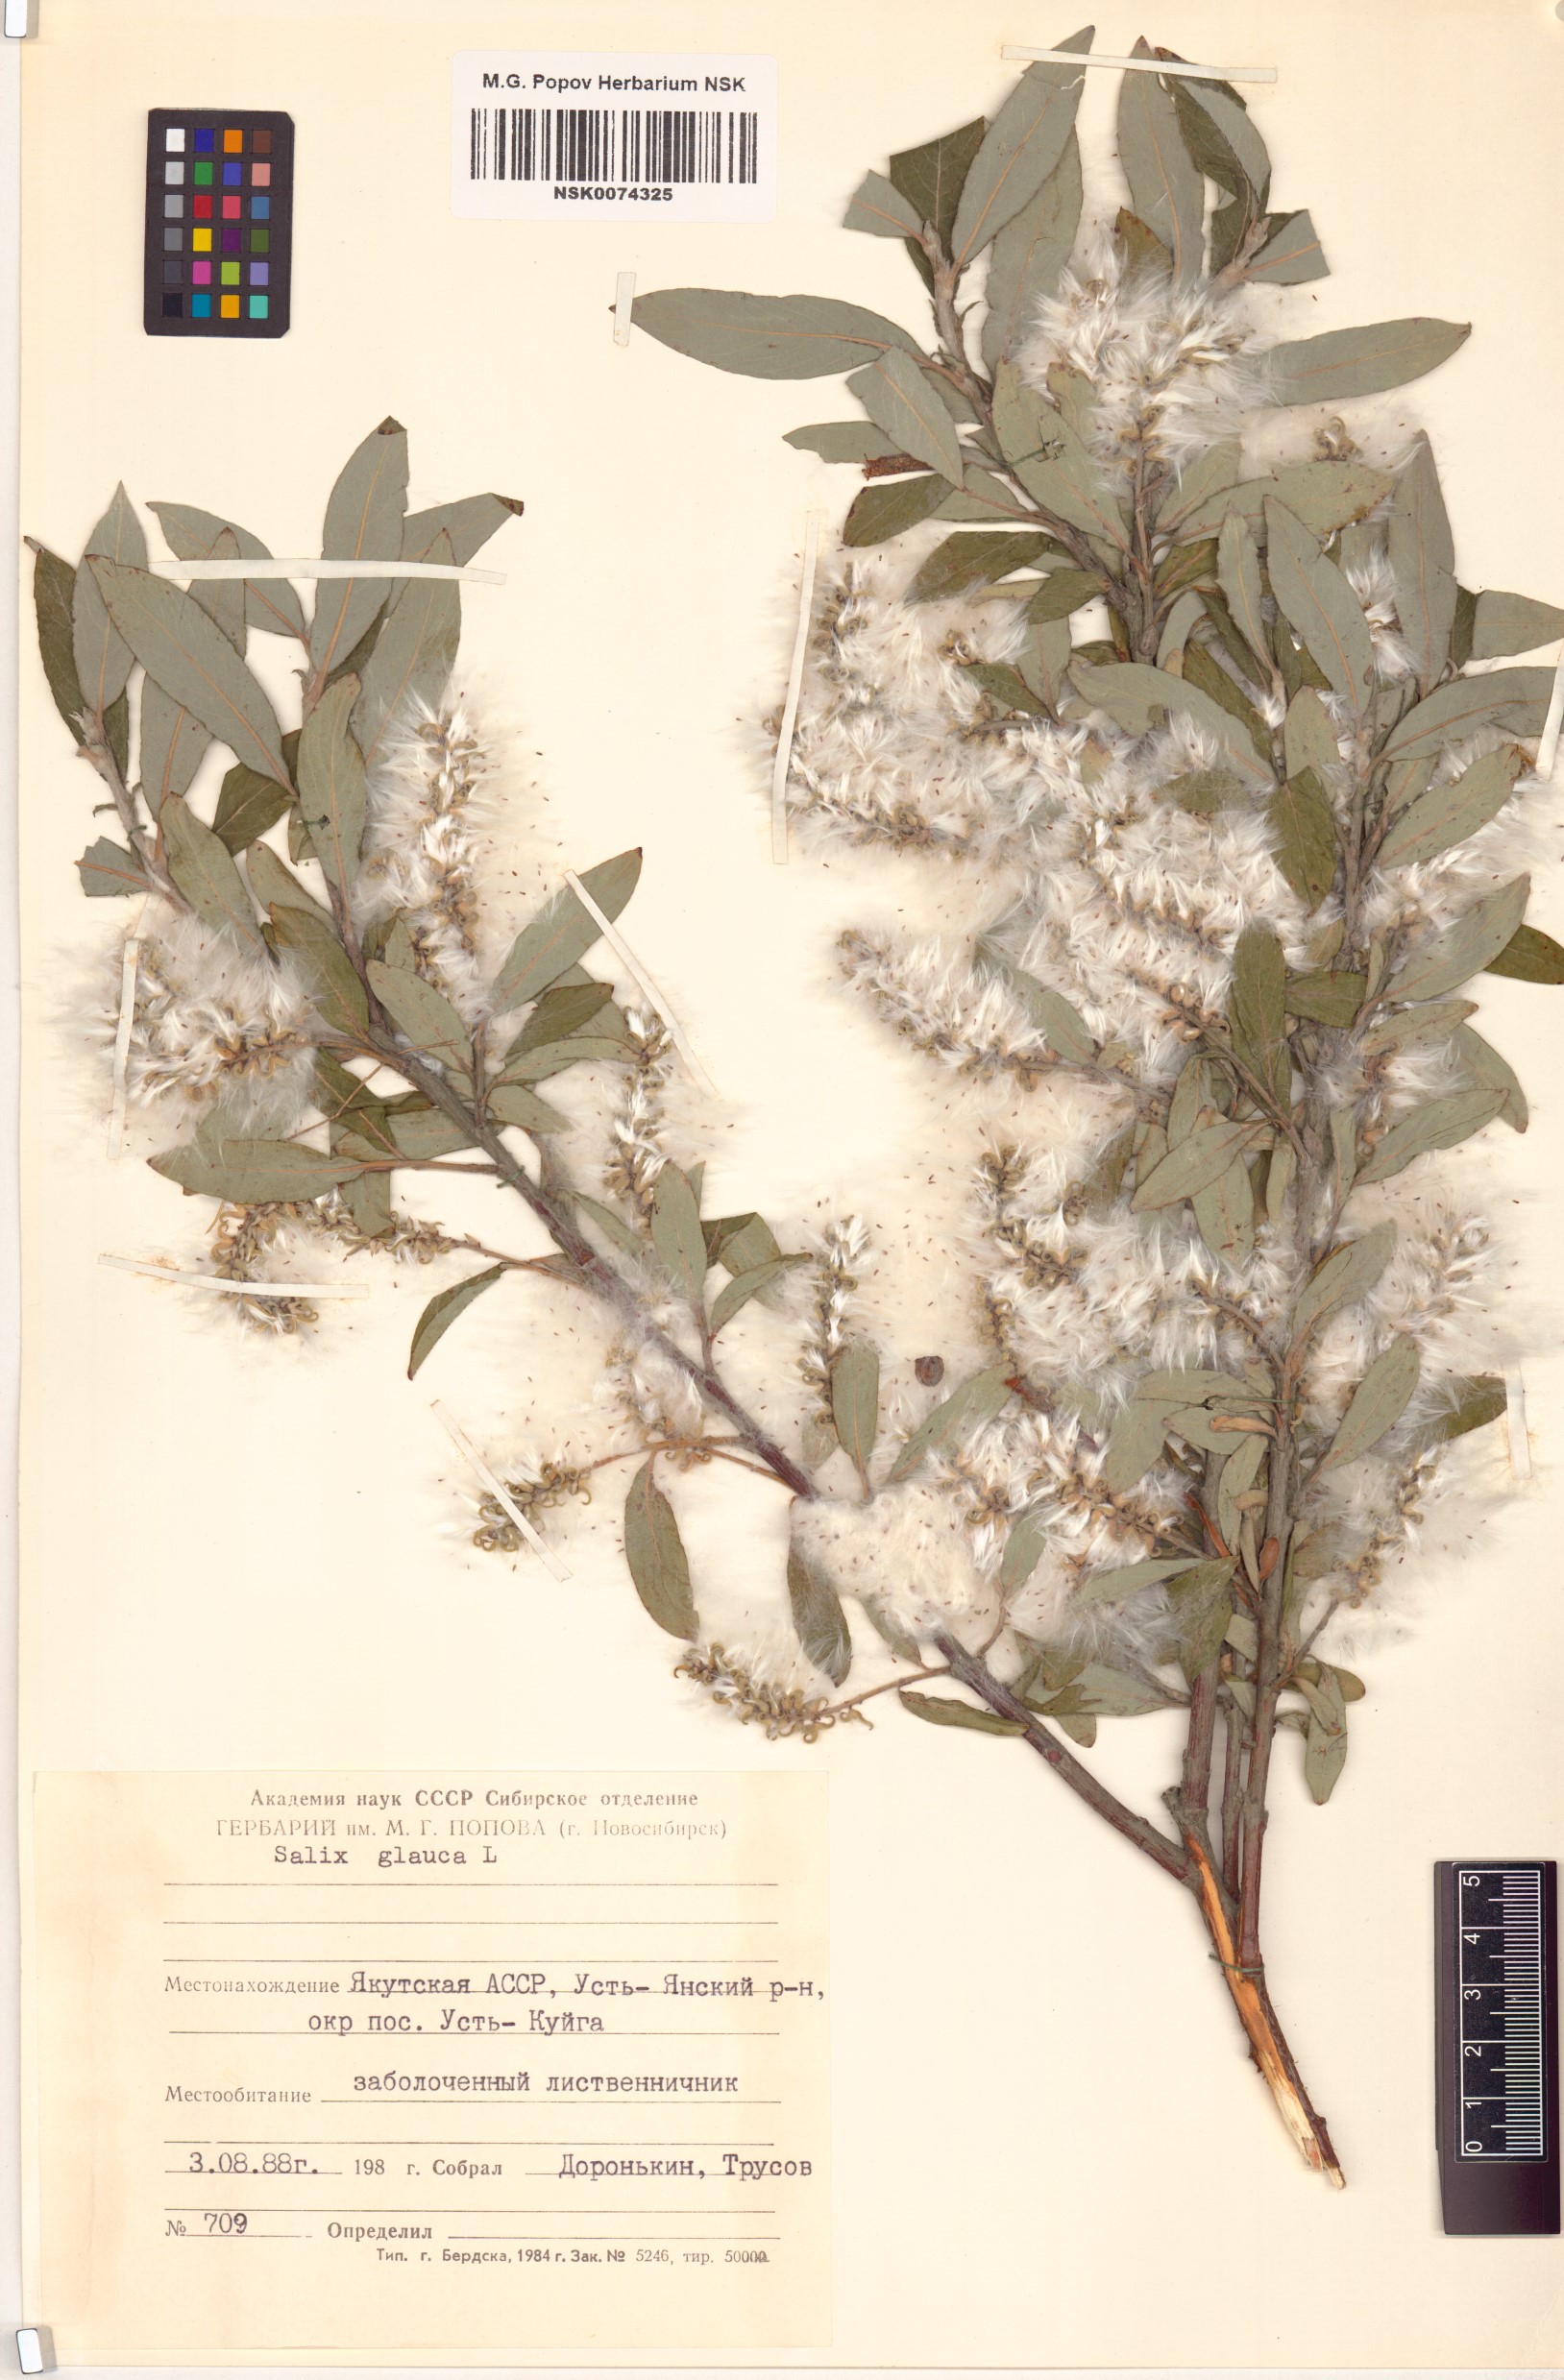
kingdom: Plantae
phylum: Tracheophyta
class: Magnoliopsida
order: Malpighiales
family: Salicaceae
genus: Salix
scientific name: Salix glauca
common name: Glaucous willow
